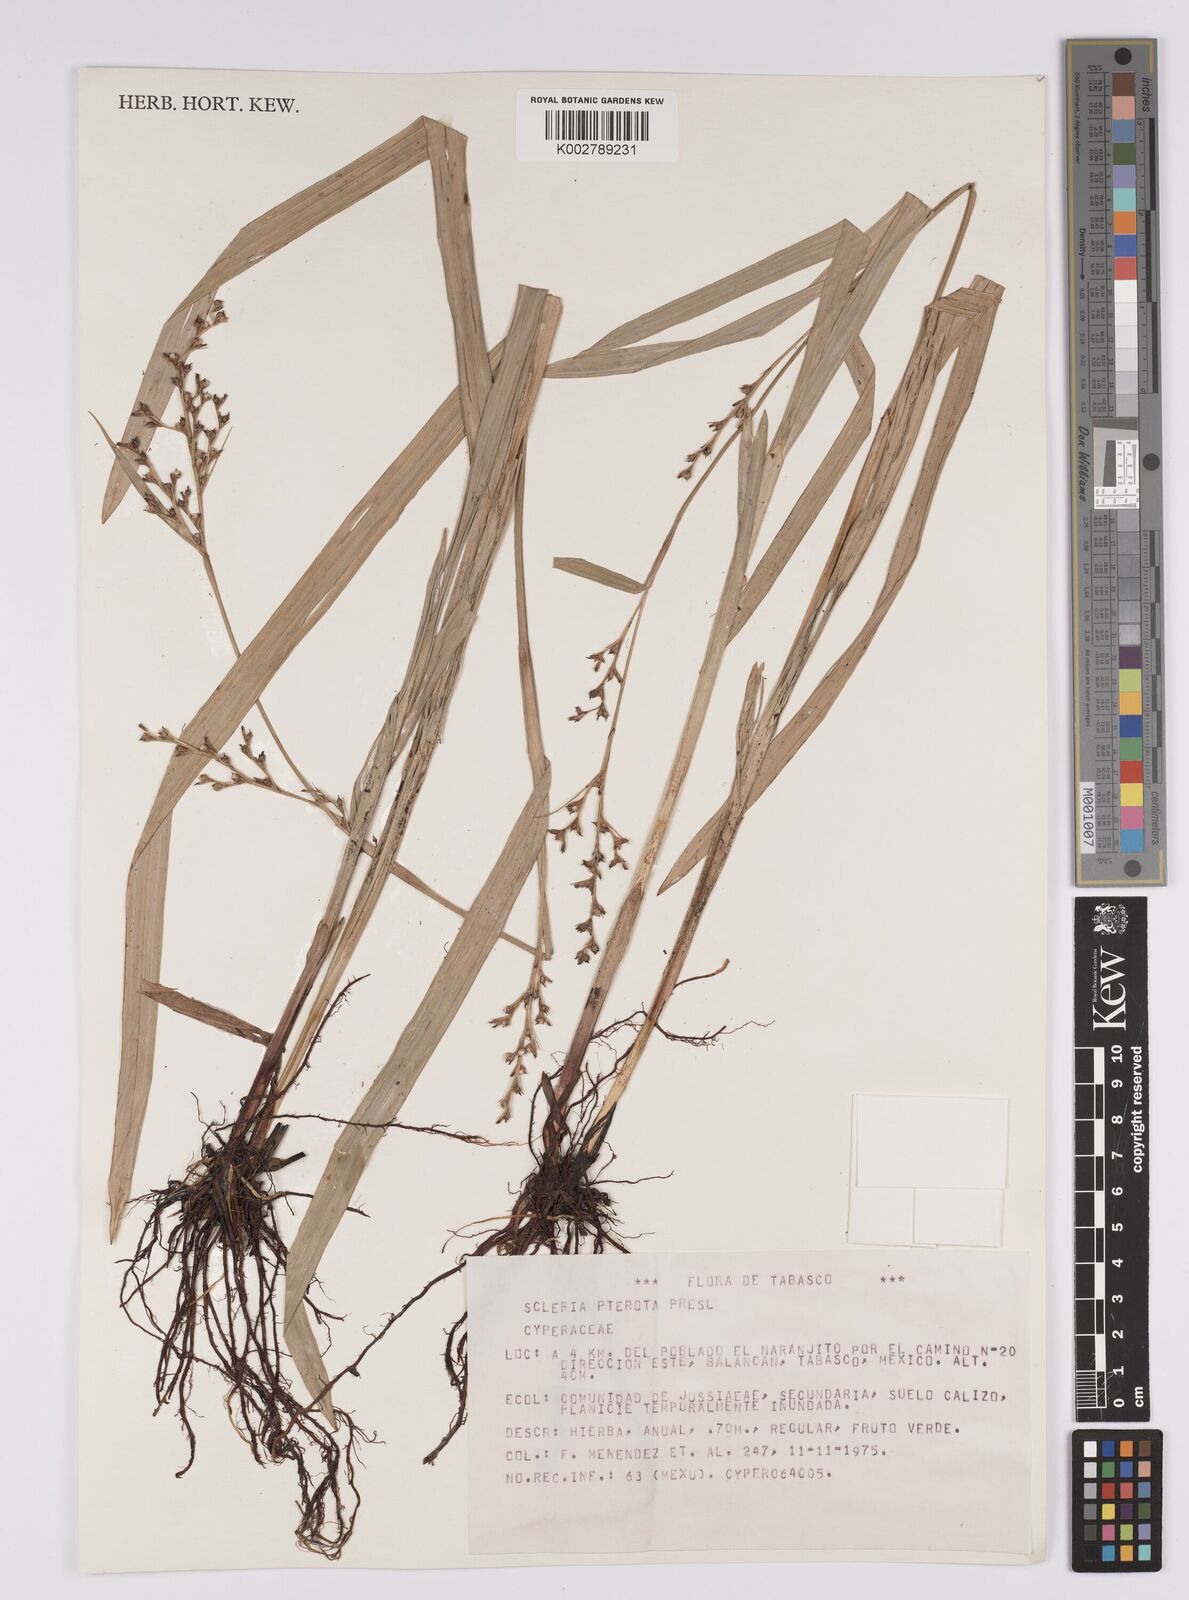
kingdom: Plantae
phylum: Tracheophyta
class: Liliopsida
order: Poales
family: Cyperaceae
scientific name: Cyperaceae
